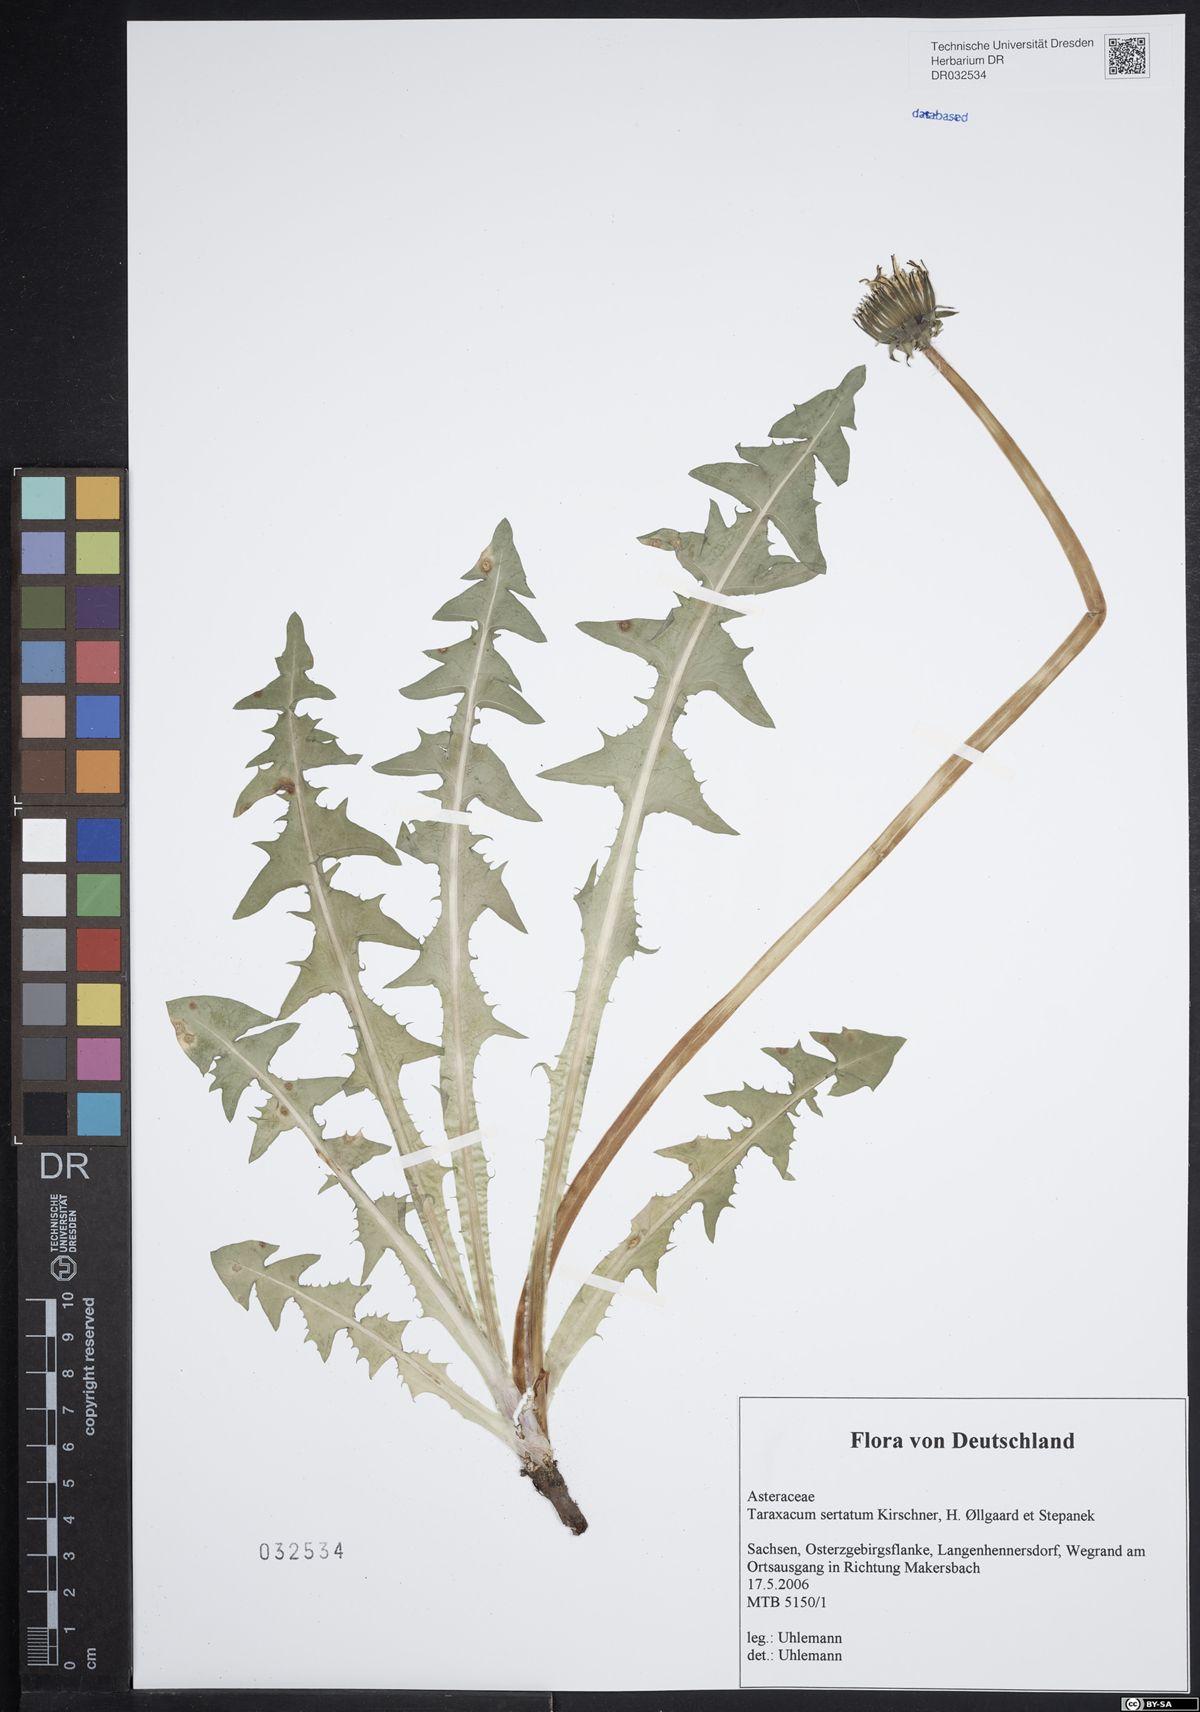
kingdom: Plantae
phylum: Tracheophyta
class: Magnoliopsida
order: Asterales
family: Asteraceae
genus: Taraxacum
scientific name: Taraxacum sertatum
